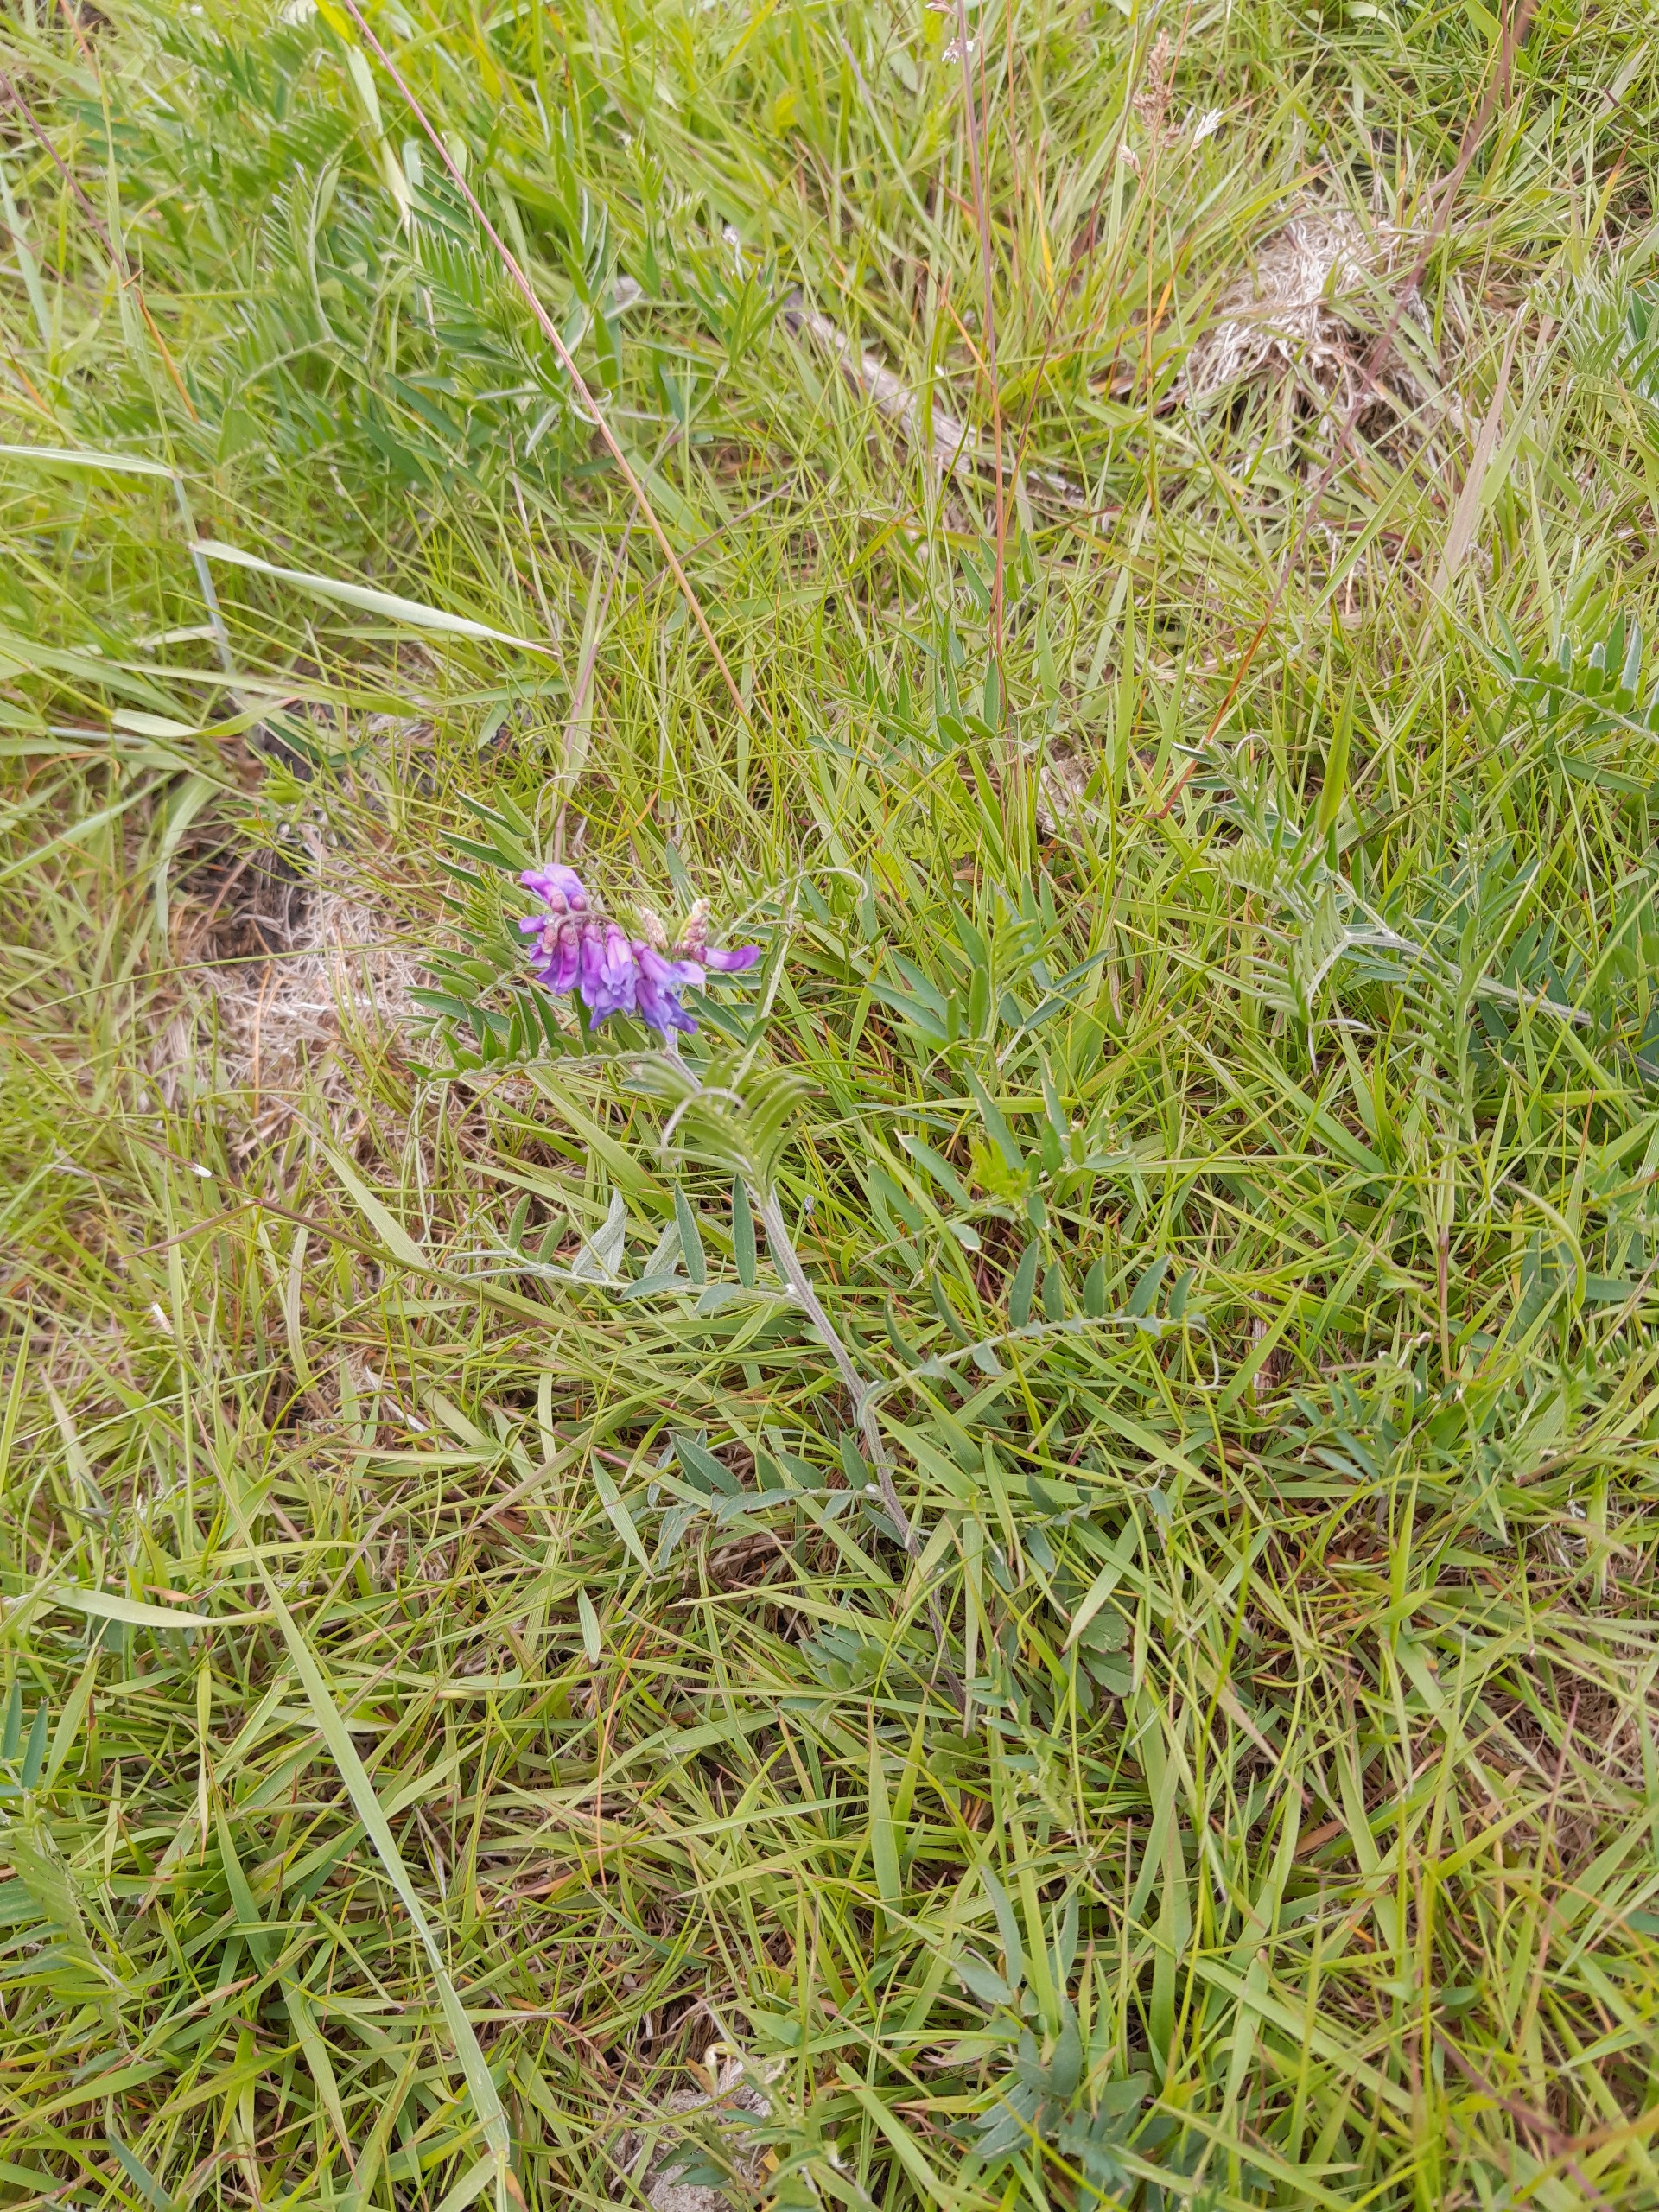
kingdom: Plantae
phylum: Tracheophyta
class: Magnoliopsida
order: Fabales
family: Fabaceae
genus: Vicia
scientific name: Vicia cracca
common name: Muse-vikke
